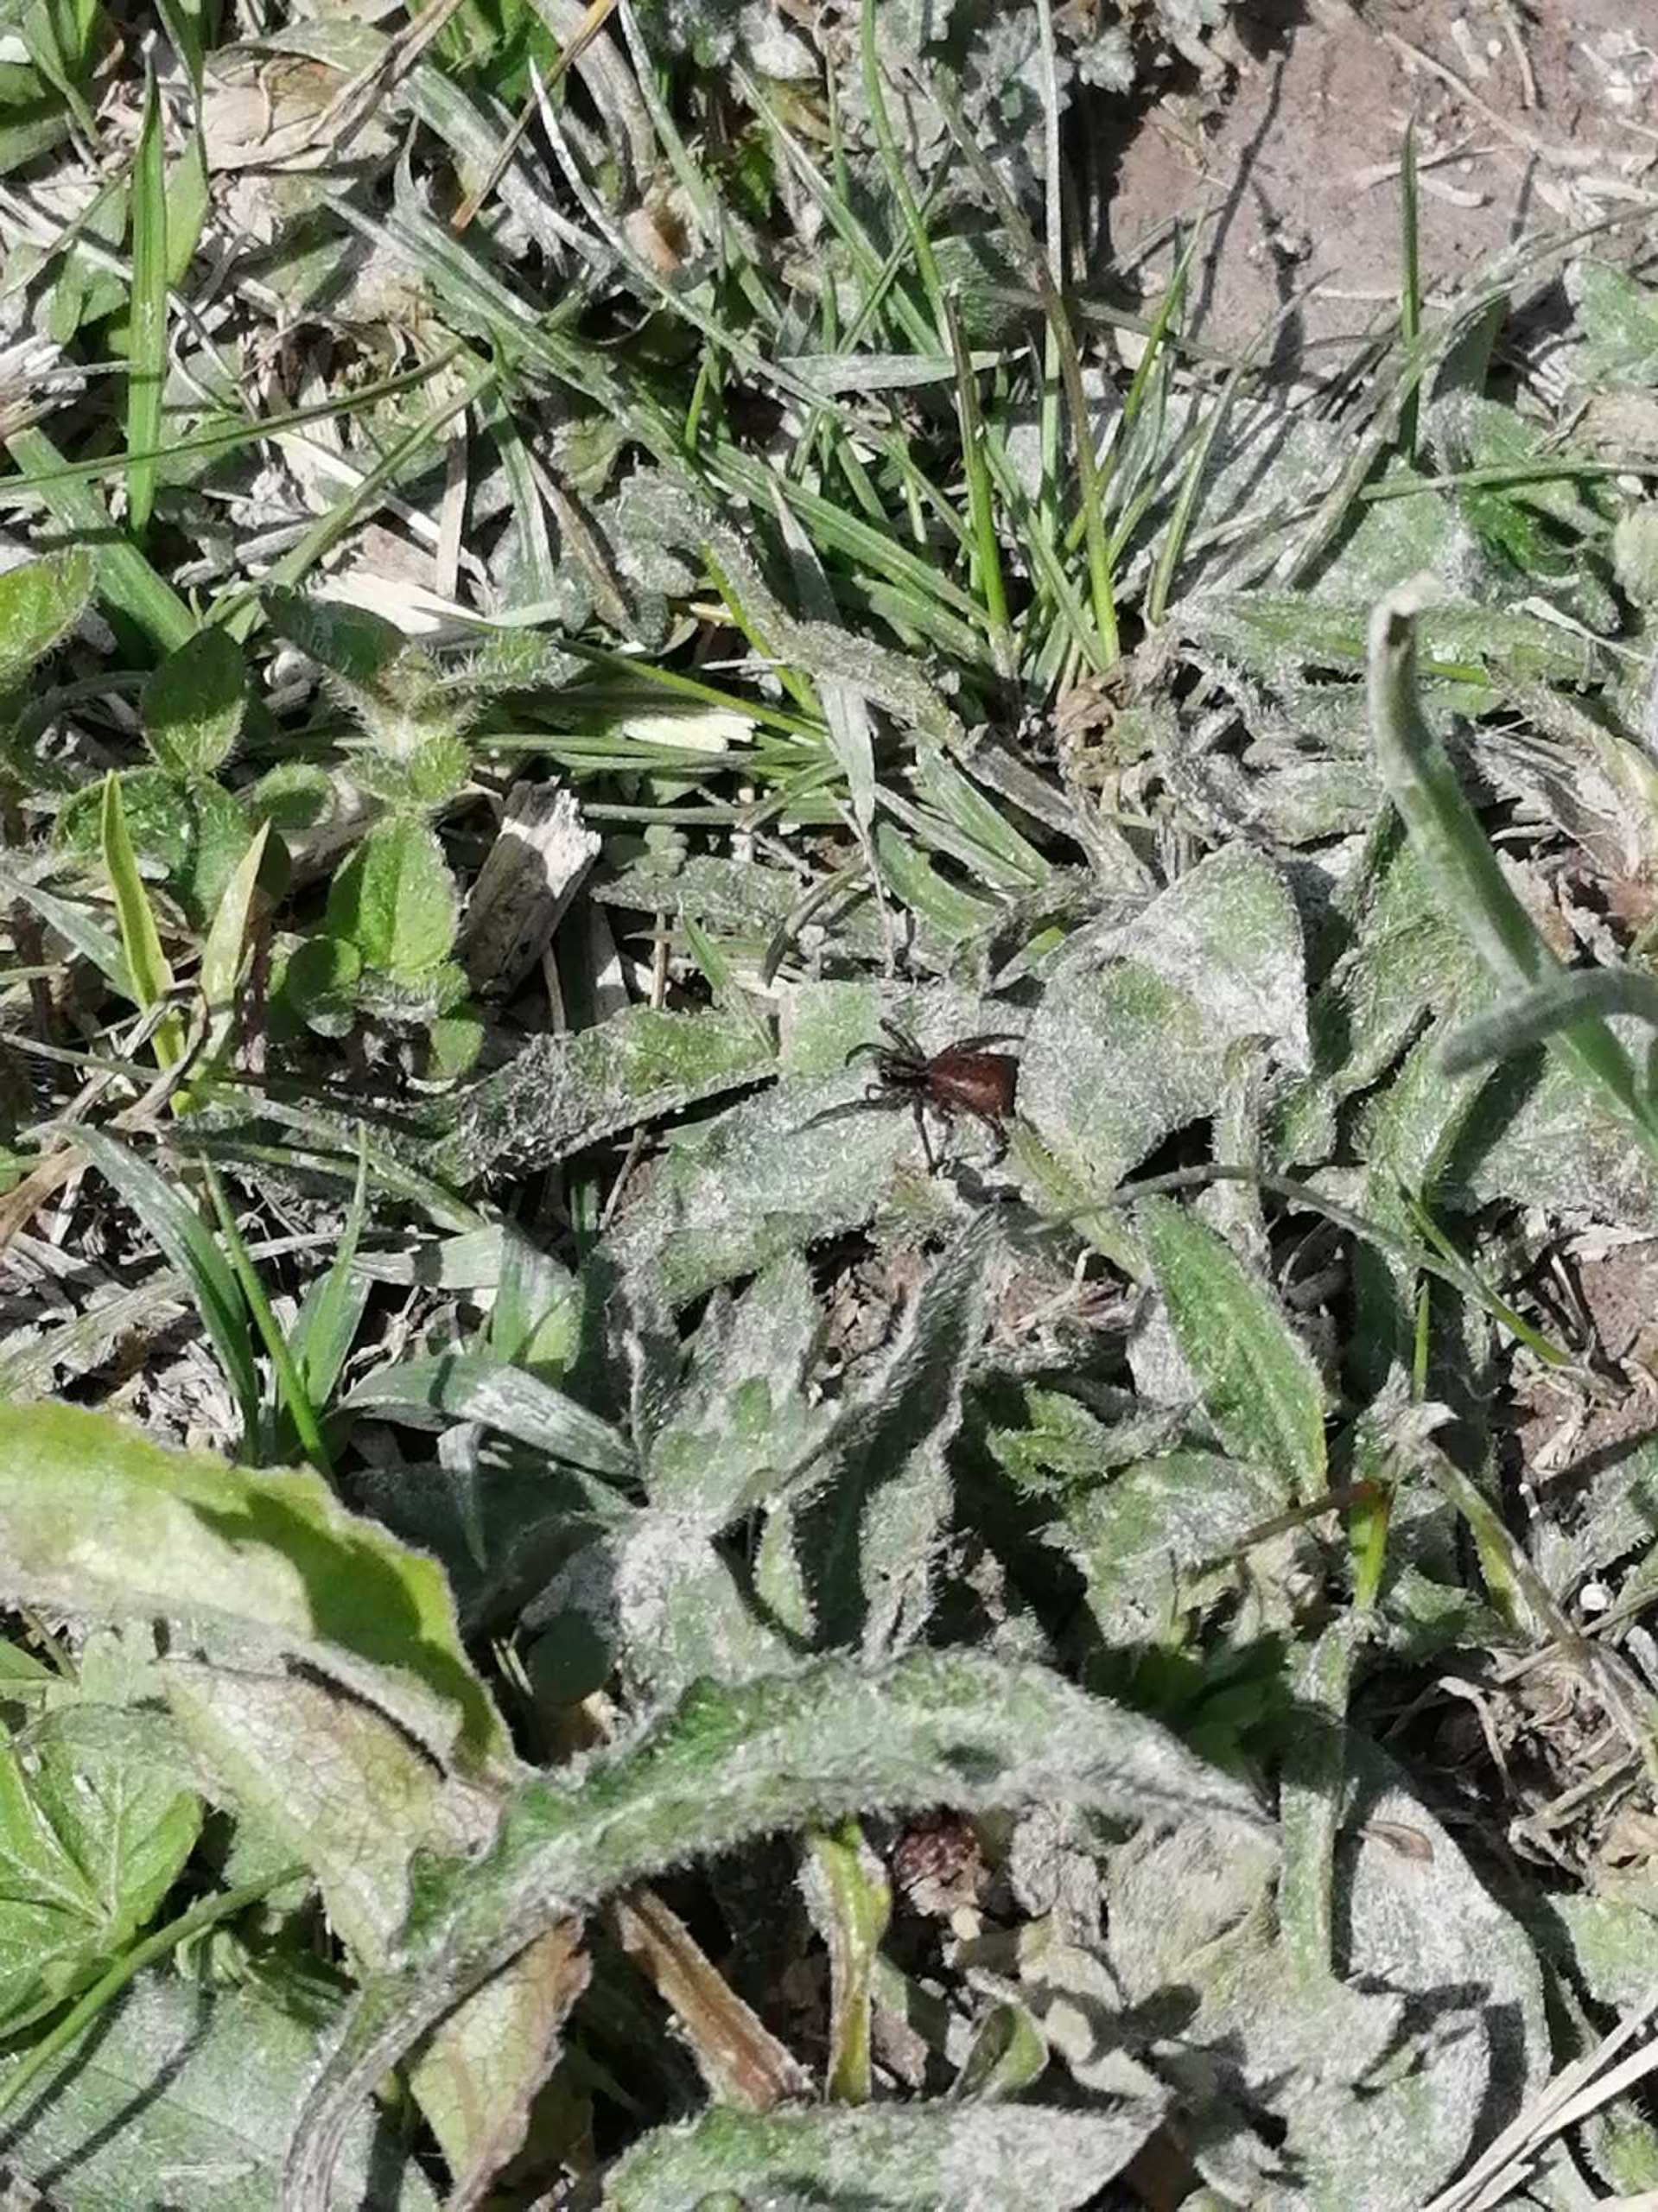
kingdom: Animalia
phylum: Arthropoda
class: Arachnida
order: Araneae
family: Lycosidae
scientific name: Lycosidae
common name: Jagtedderkopper
